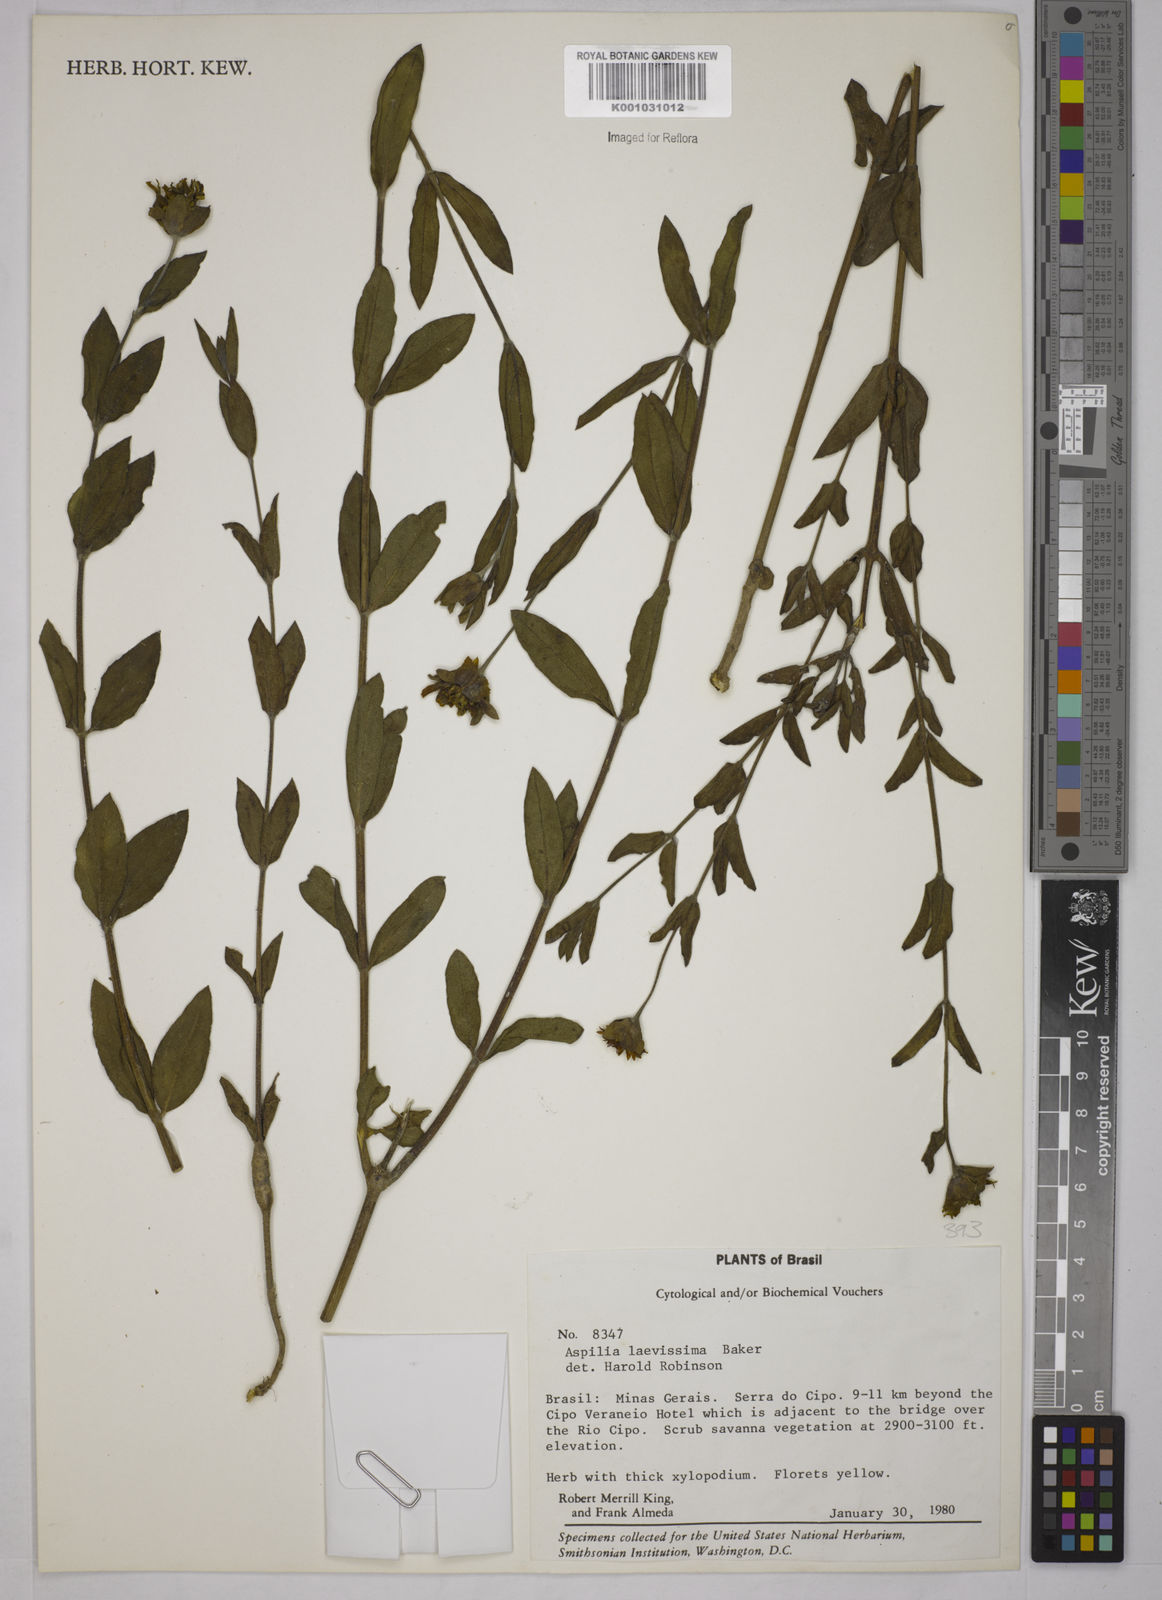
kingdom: Plantae
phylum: Tracheophyta
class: Magnoliopsida
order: Asterales
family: Asteraceae
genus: Wedelia
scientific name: Wedelia laevissima
